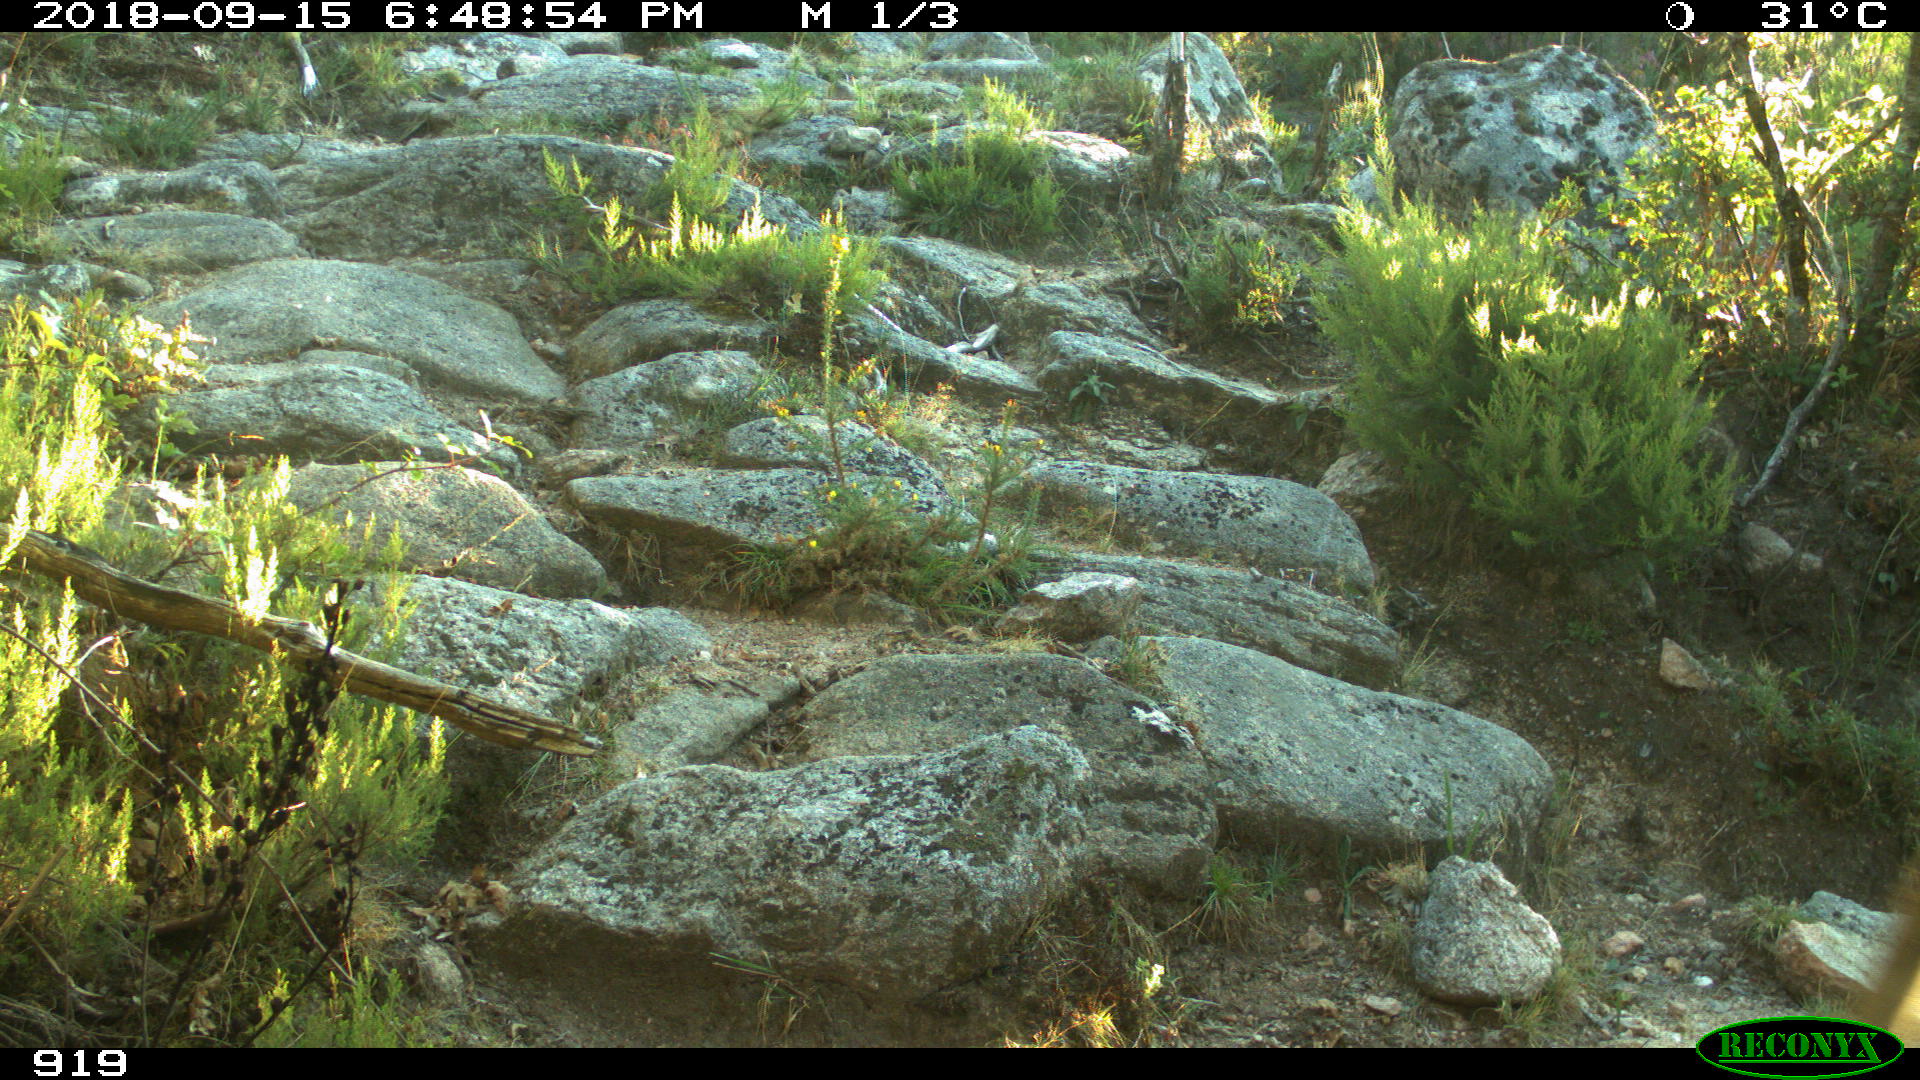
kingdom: Animalia
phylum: Chordata
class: Mammalia
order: Artiodactyla
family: Bovidae
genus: Bos
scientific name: Bos taurus
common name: Domesticated cattle
